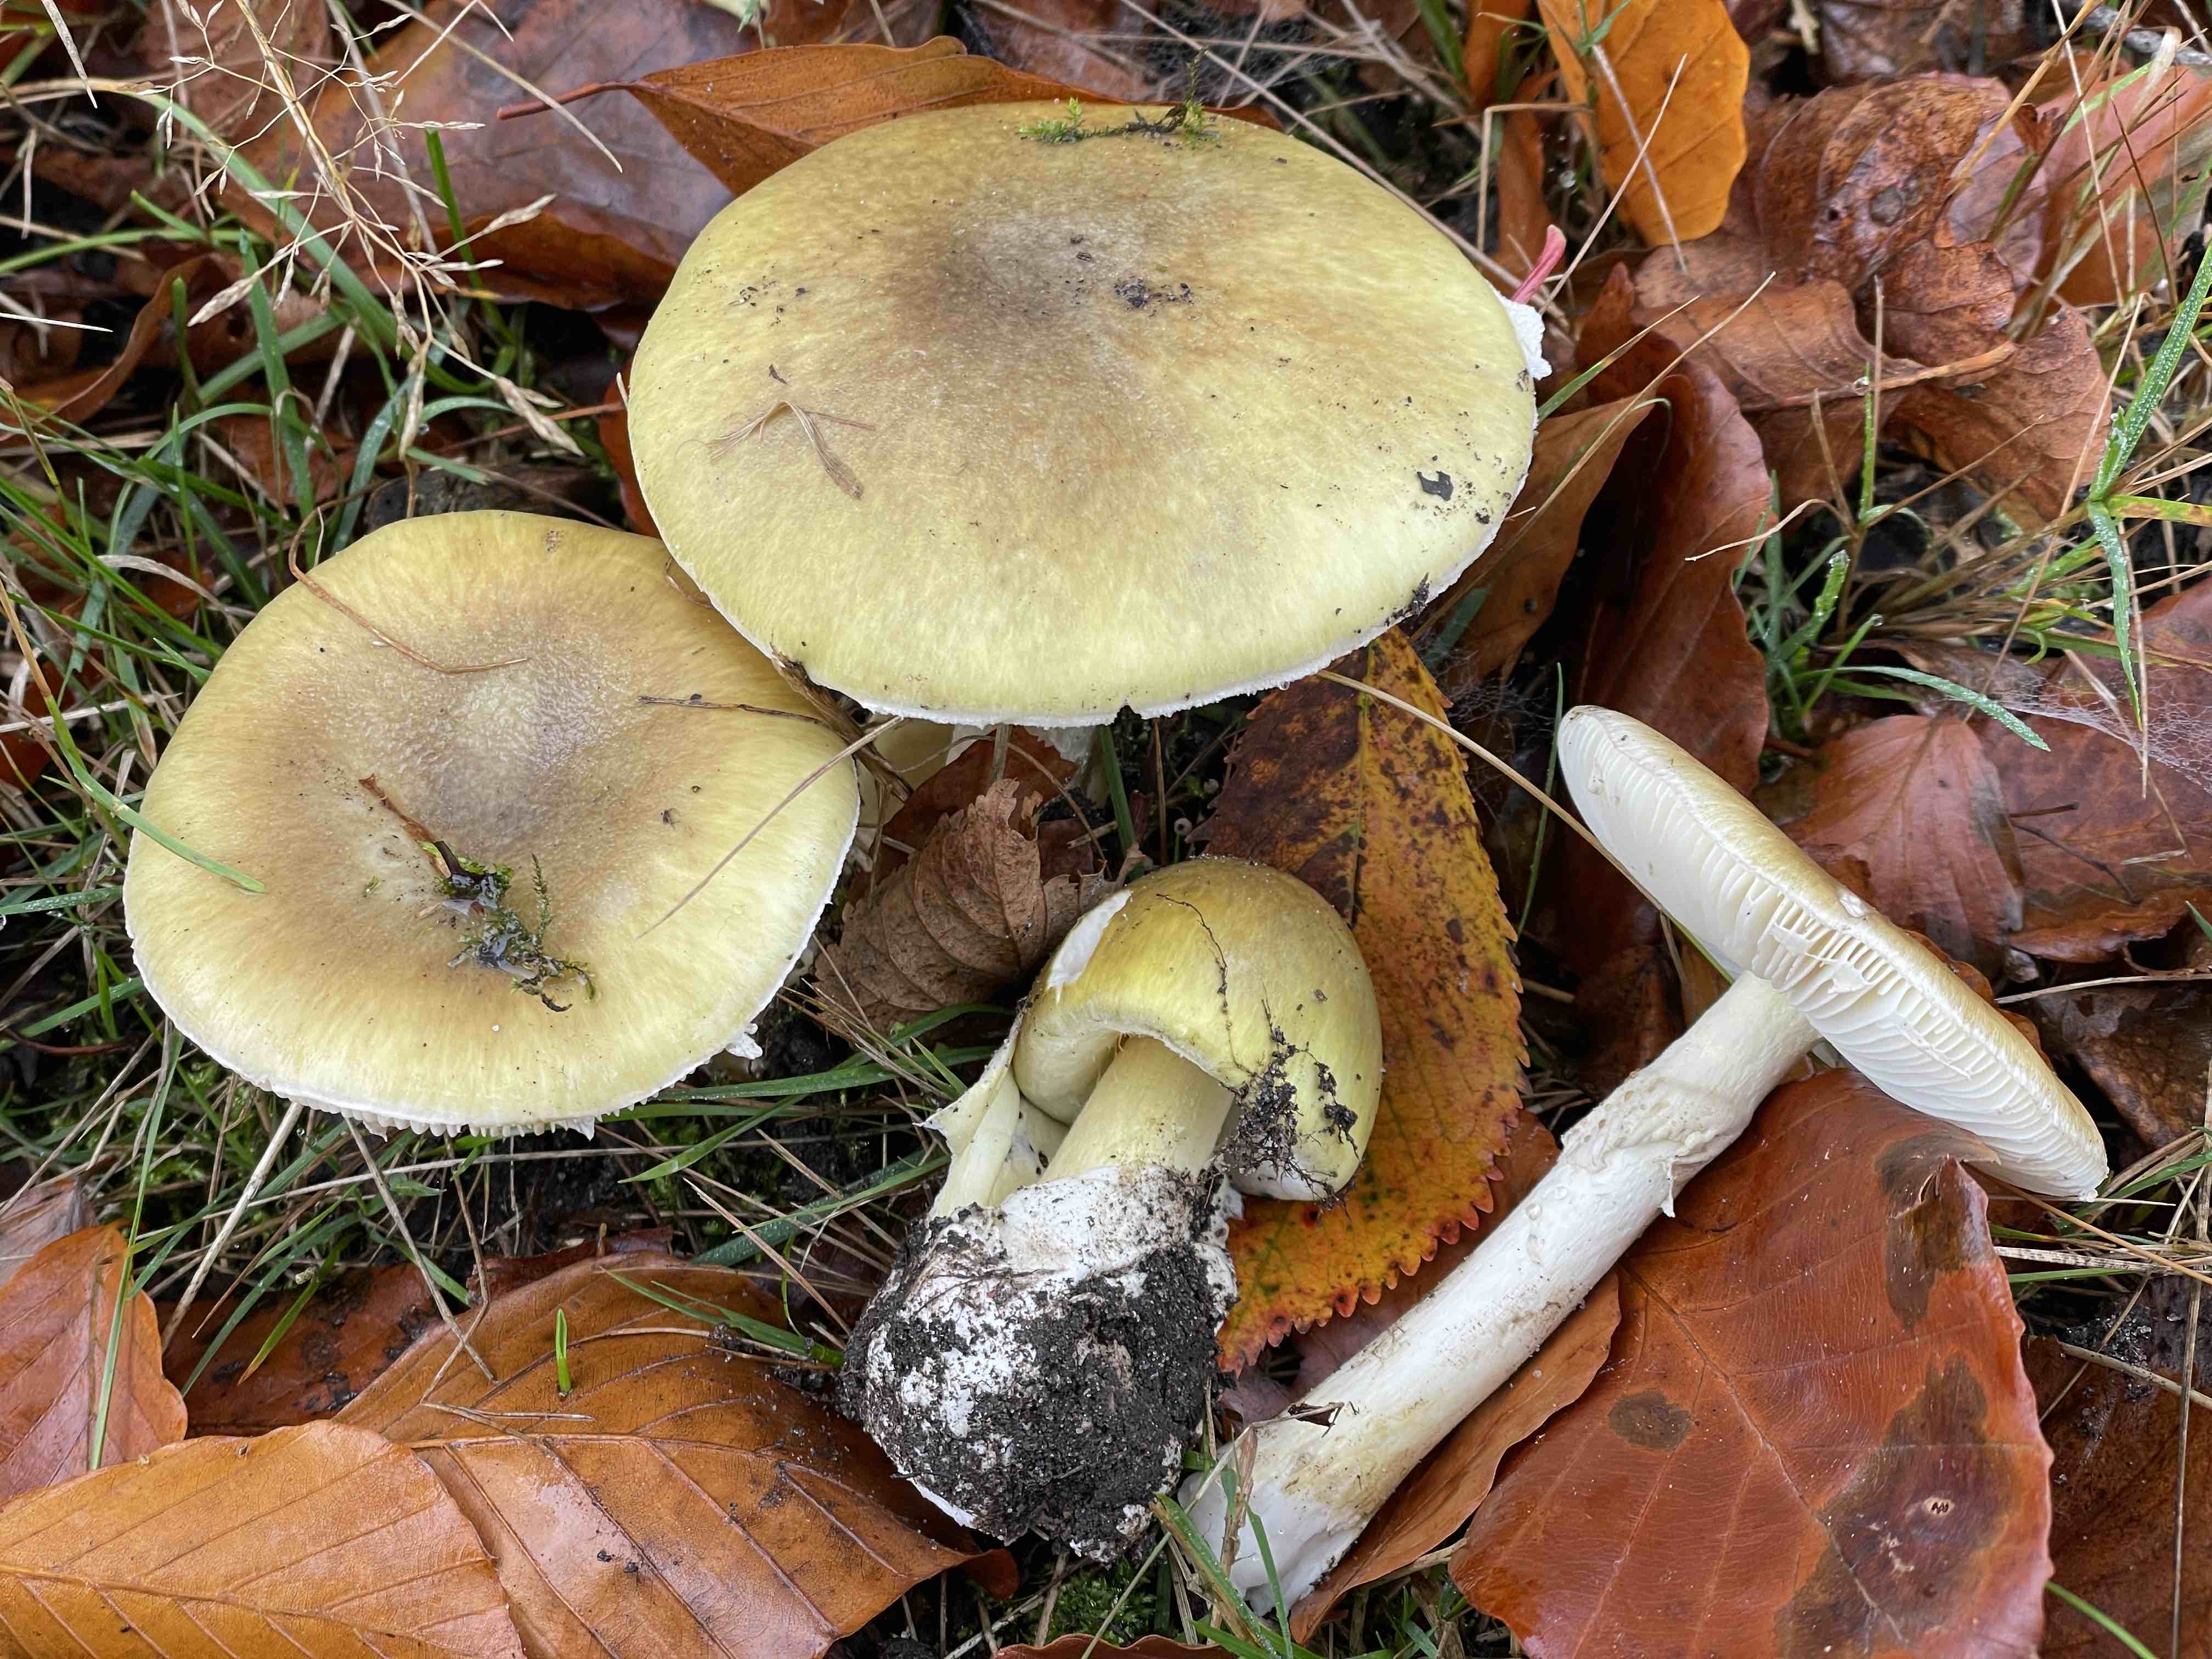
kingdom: Fungi
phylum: Basidiomycota
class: Agaricomycetes
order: Agaricales
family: Amanitaceae
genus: Amanita
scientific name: Amanita phalloides
